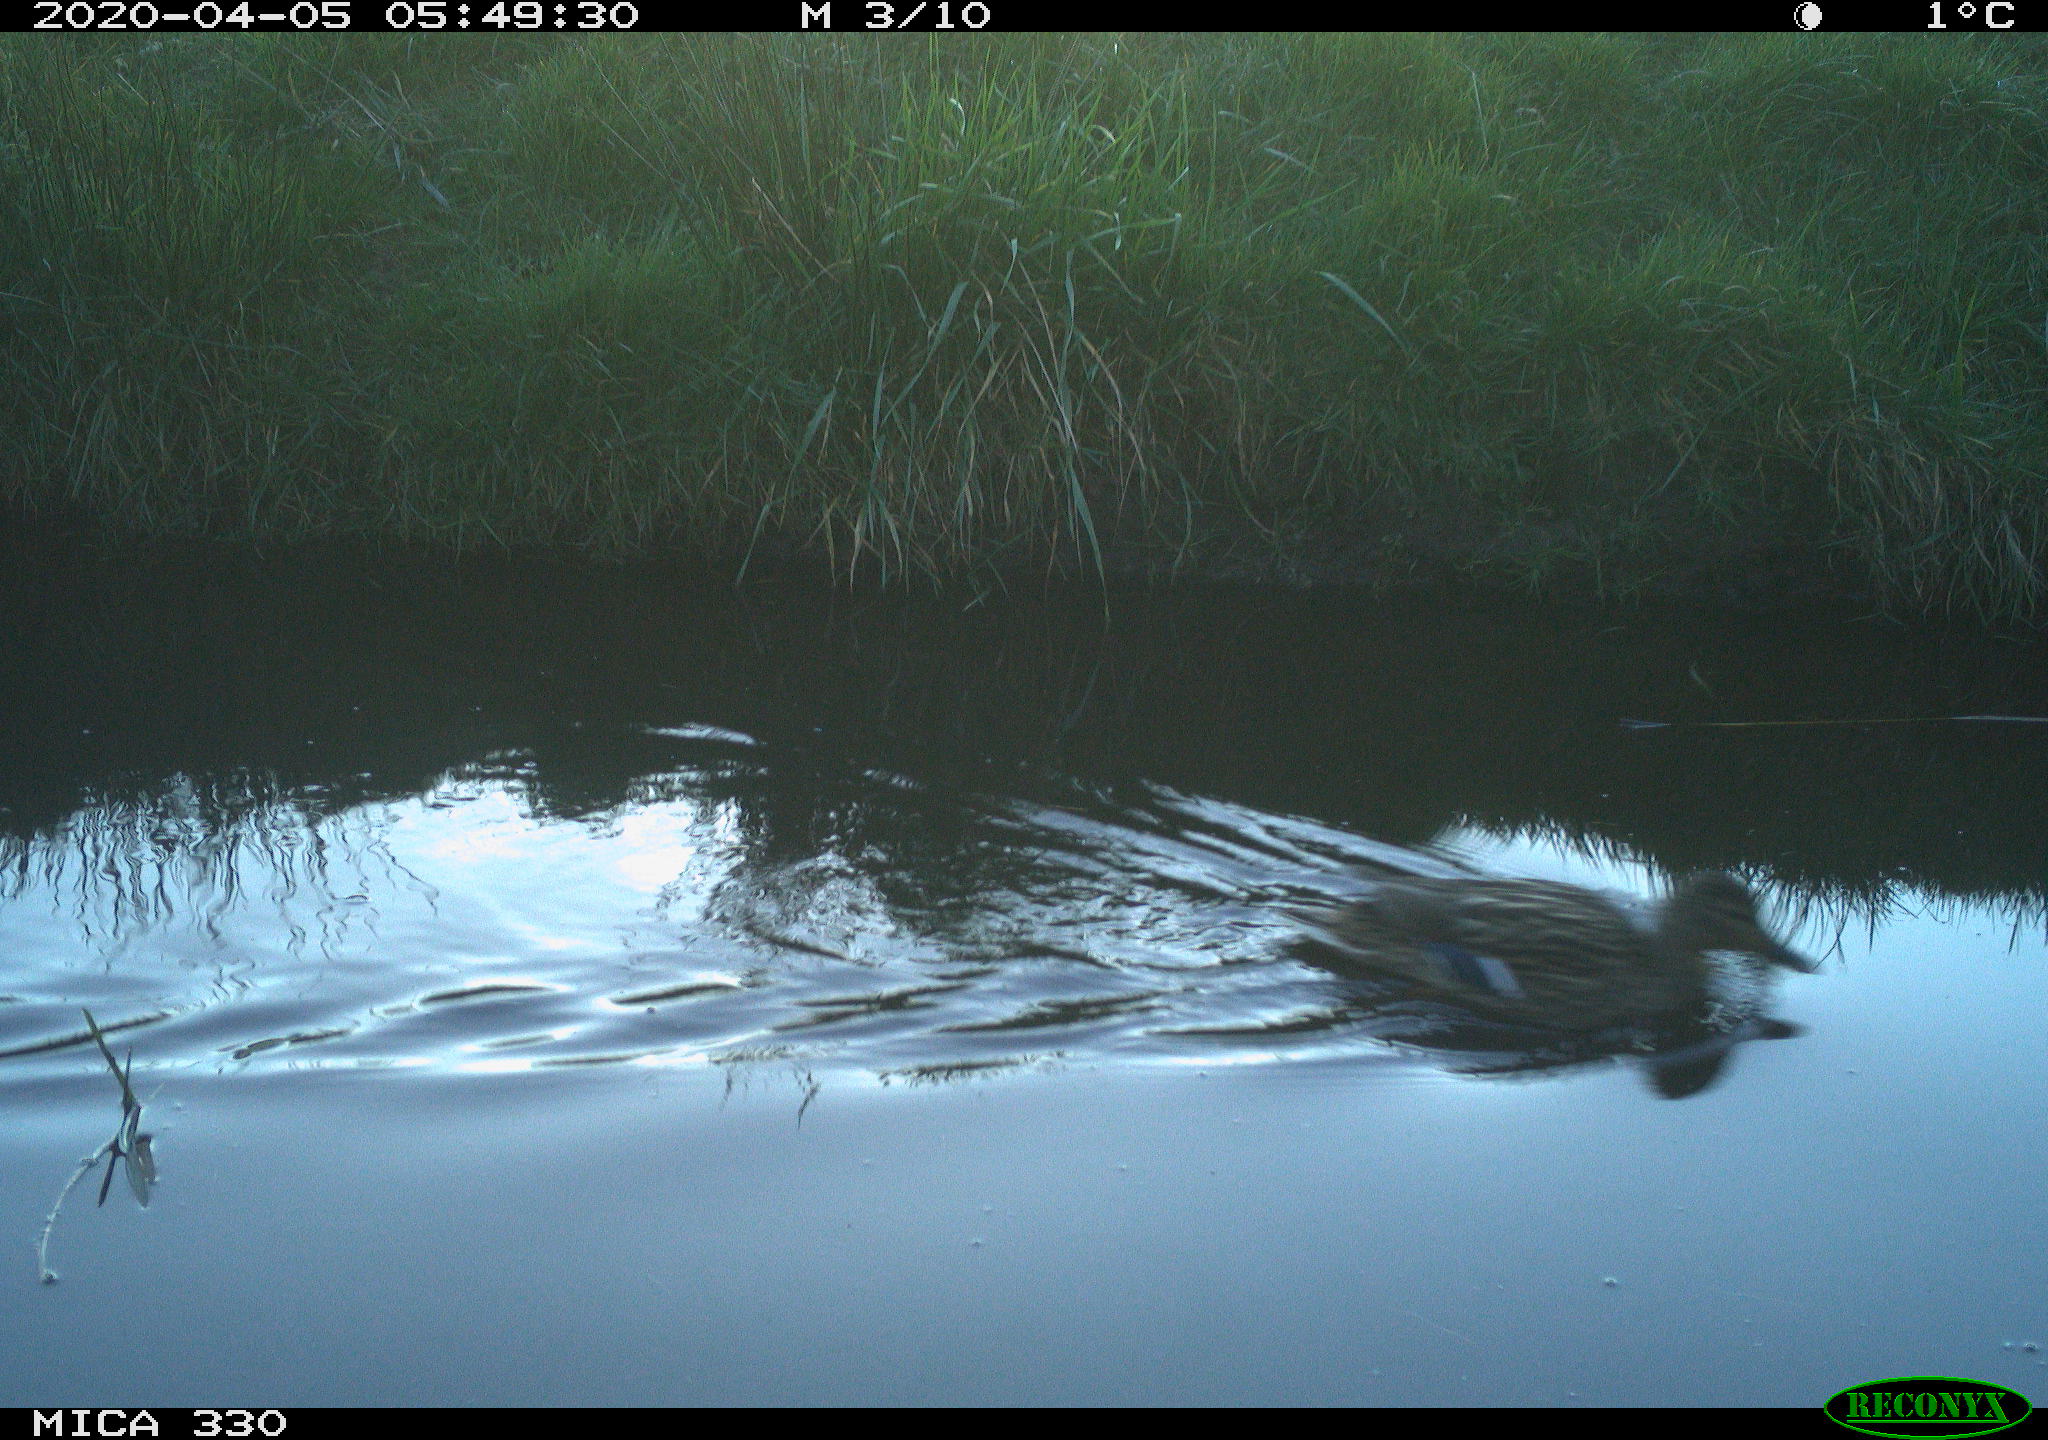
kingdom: Animalia
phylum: Chordata
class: Aves
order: Anseriformes
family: Anatidae
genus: Anas
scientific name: Anas platyrhynchos
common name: Mallard
